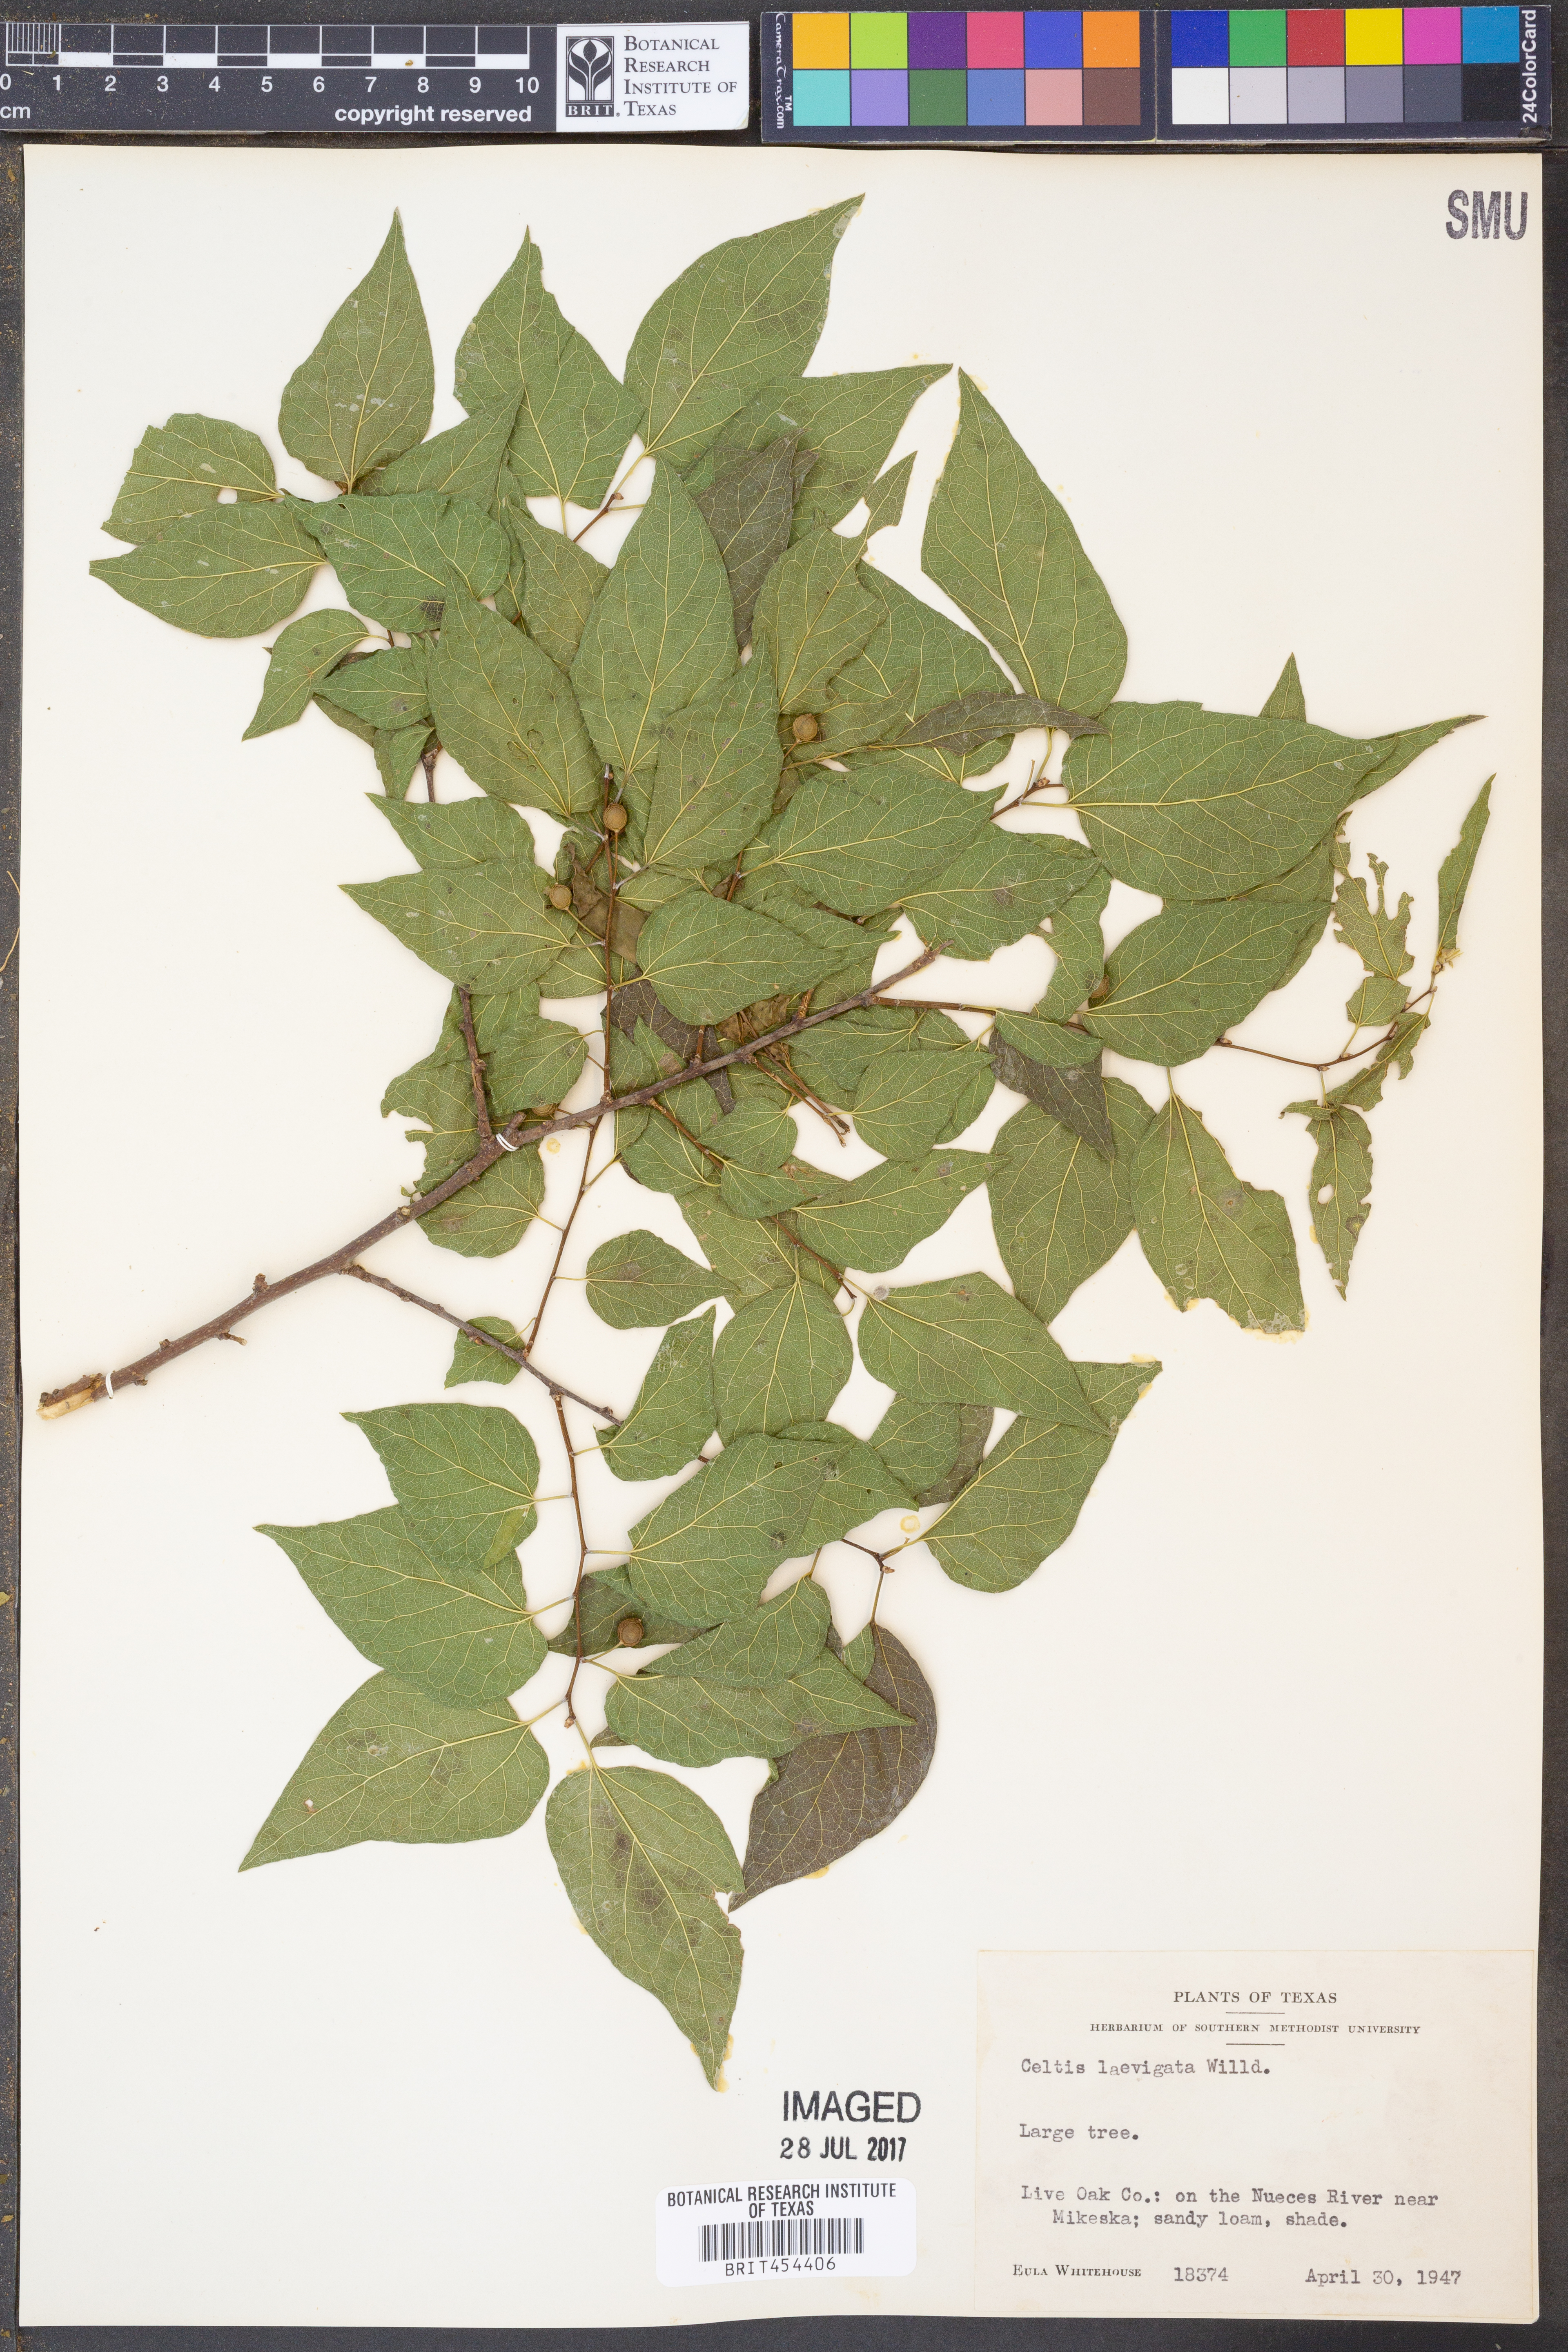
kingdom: Plantae
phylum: Tracheophyta
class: Magnoliopsida
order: Rosales
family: Cannabaceae
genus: Celtis
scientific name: Celtis laevigata
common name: Sugarberry
